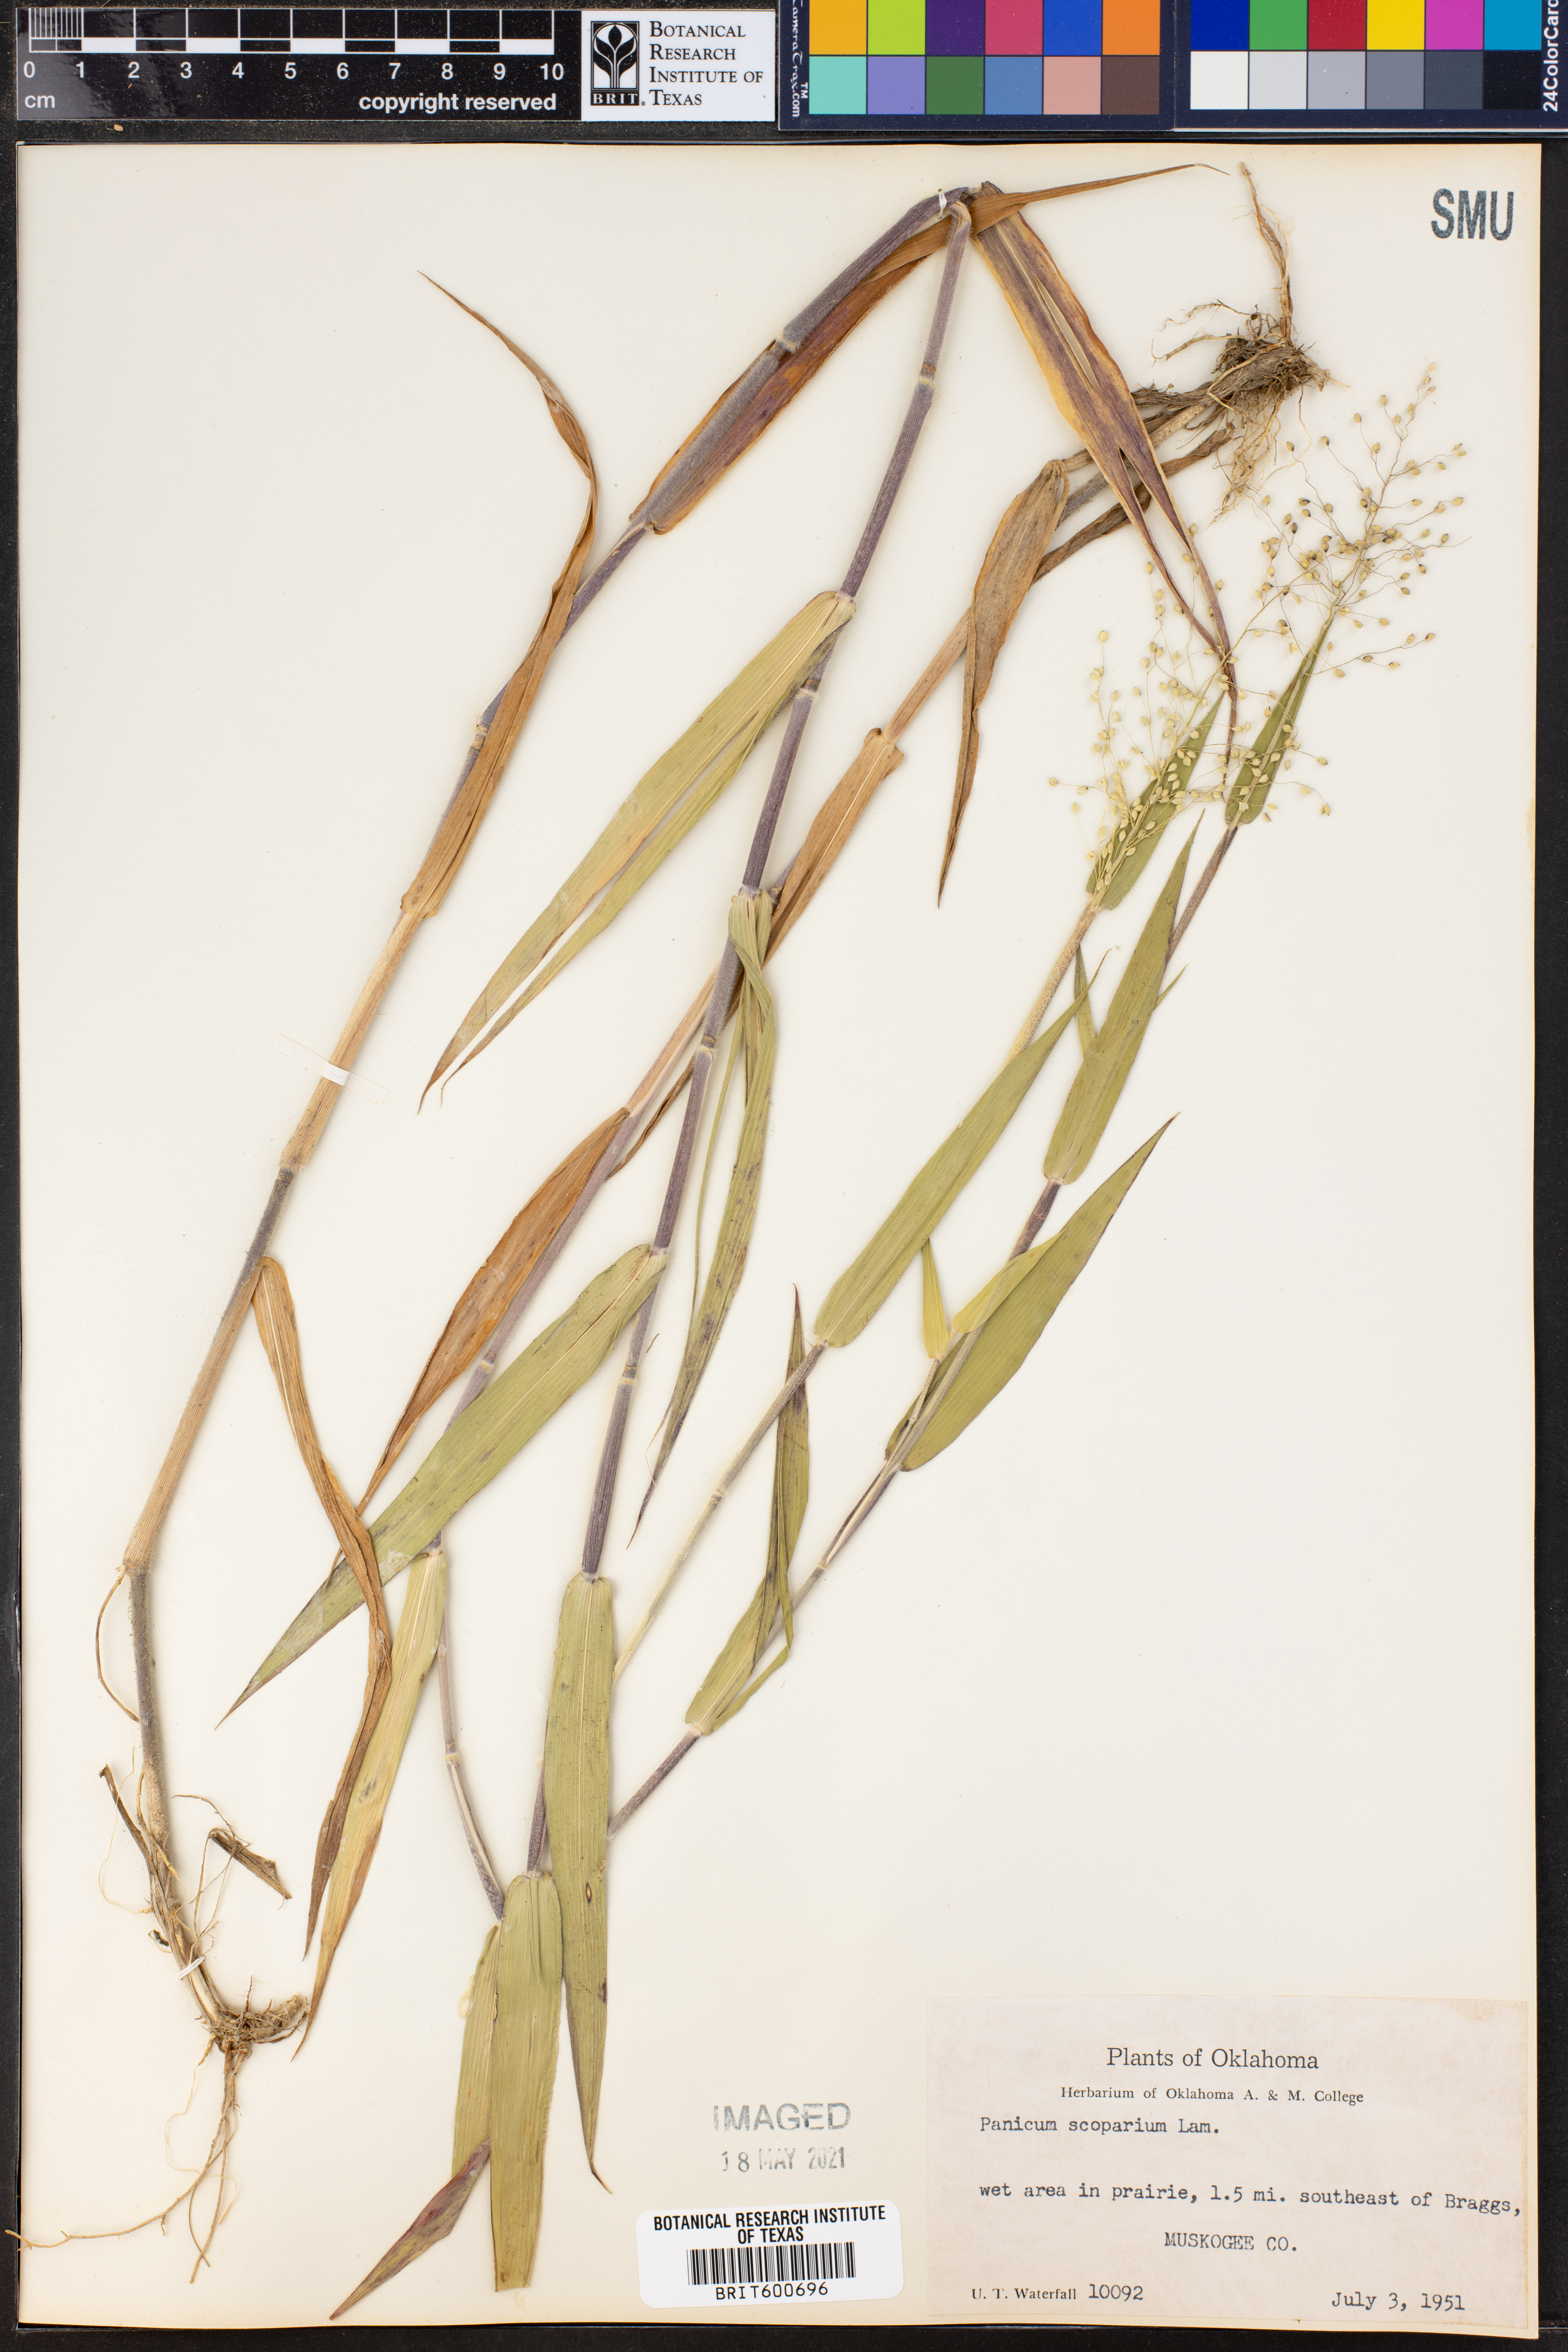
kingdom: Plantae
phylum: Tracheophyta
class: Liliopsida
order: Poales
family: Poaceae
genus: Dichanthelium
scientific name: Dichanthelium scribnerianum
